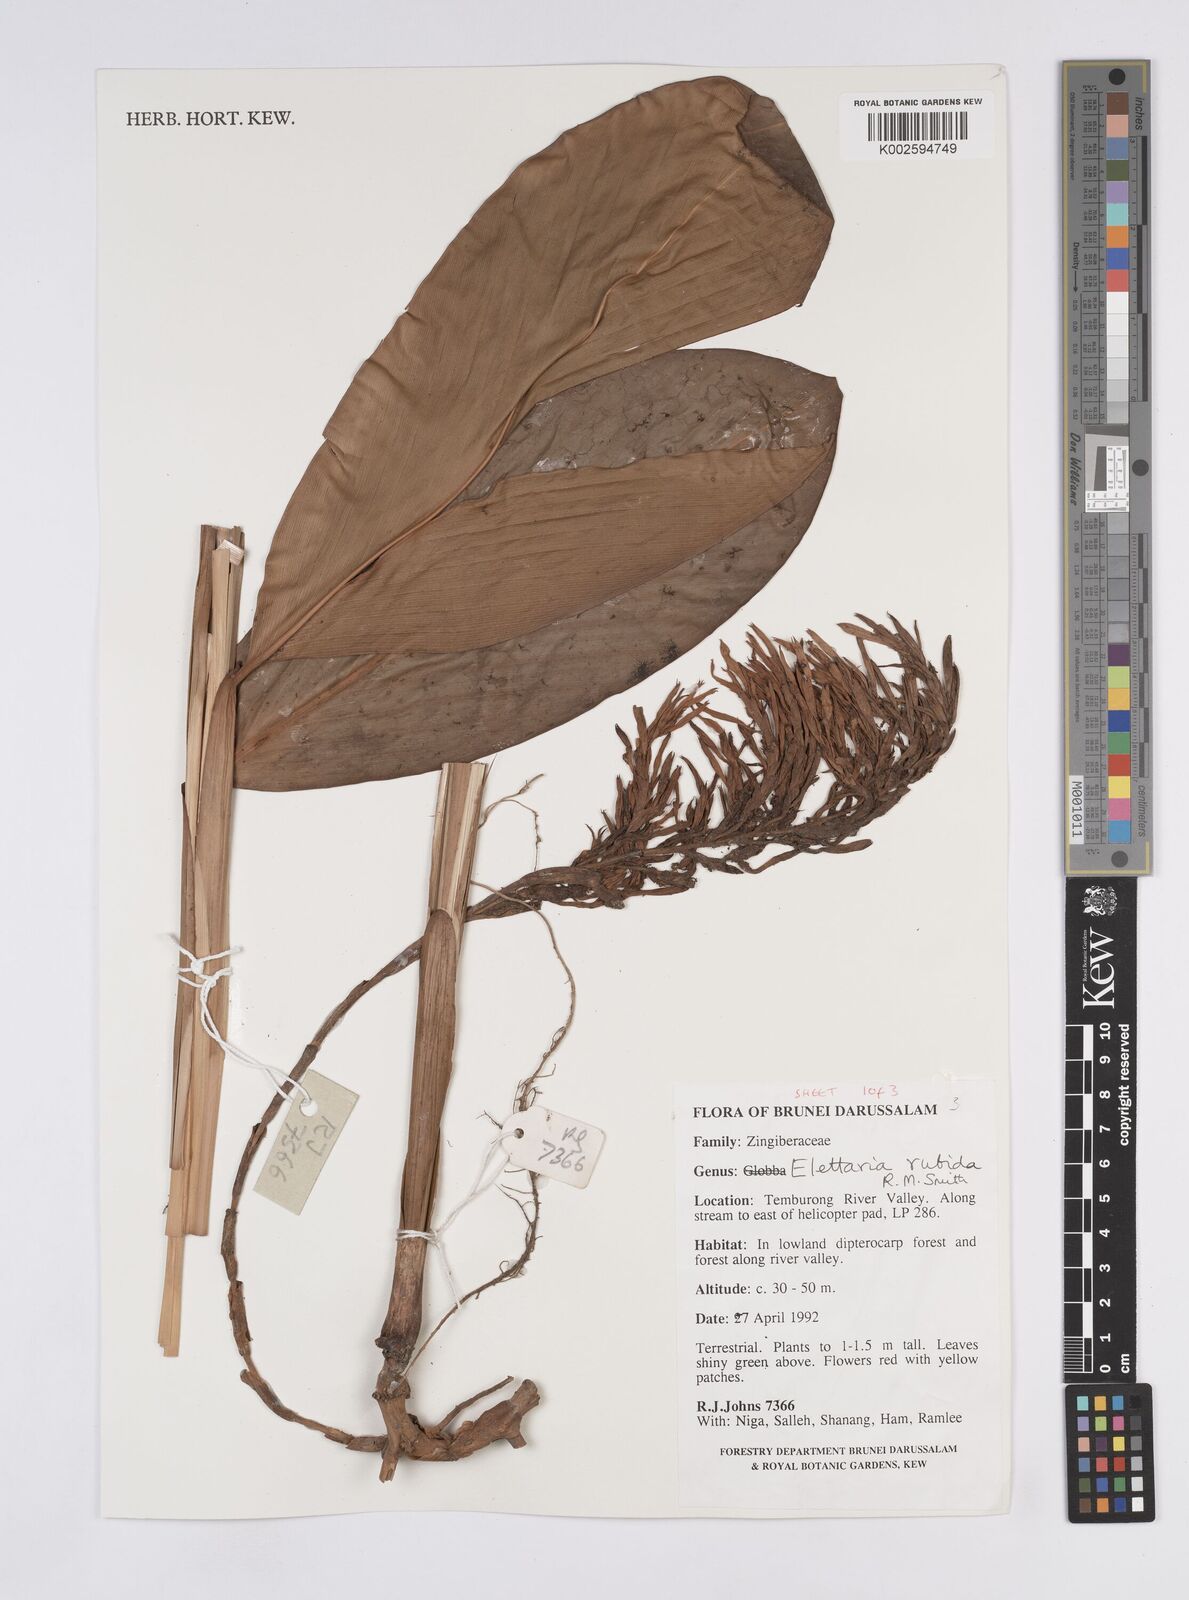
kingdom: Plantae
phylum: Tracheophyta
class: Liliopsida
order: Zingiberales
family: Zingiberaceae
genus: Sulettaria
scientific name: Sulettaria rubida
